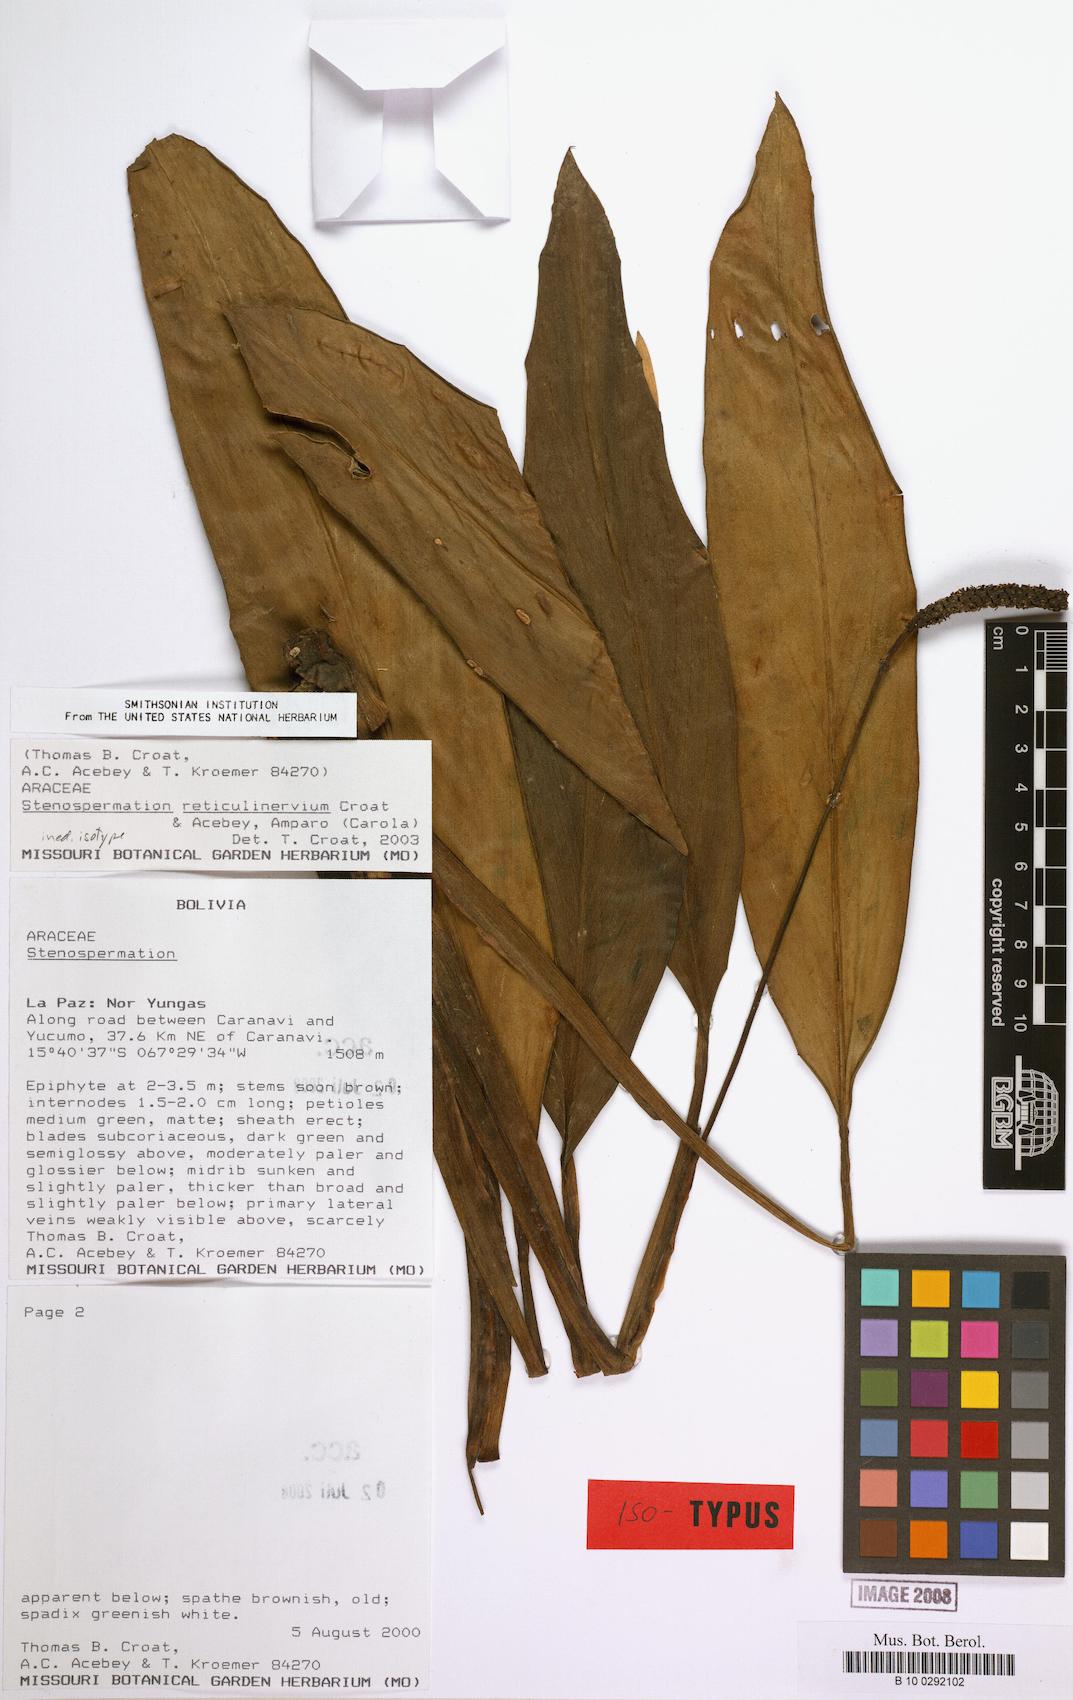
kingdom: Plantae
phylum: Tracheophyta
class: Liliopsida
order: Alismatales
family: Araceae
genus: Stenospermation
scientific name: Stenospermation
